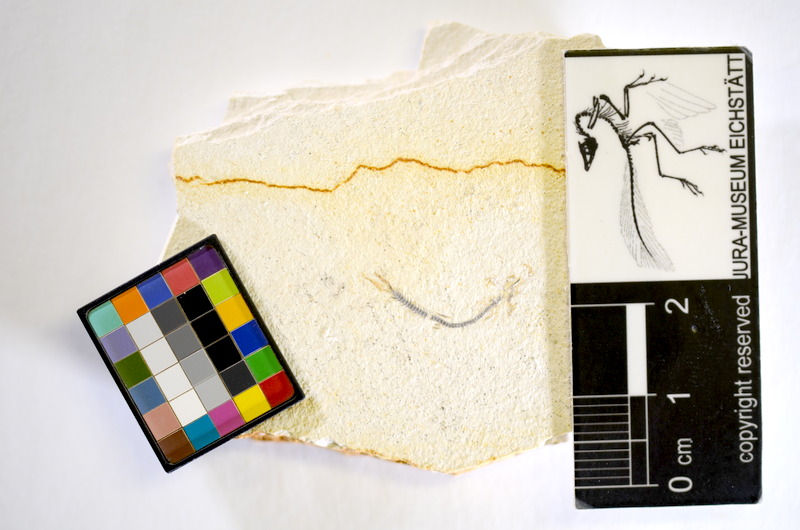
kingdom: Animalia
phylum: Chordata
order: Salmoniformes
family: Orthogonikleithridae
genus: Orthogonikleithrus
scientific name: Orthogonikleithrus hoelli
